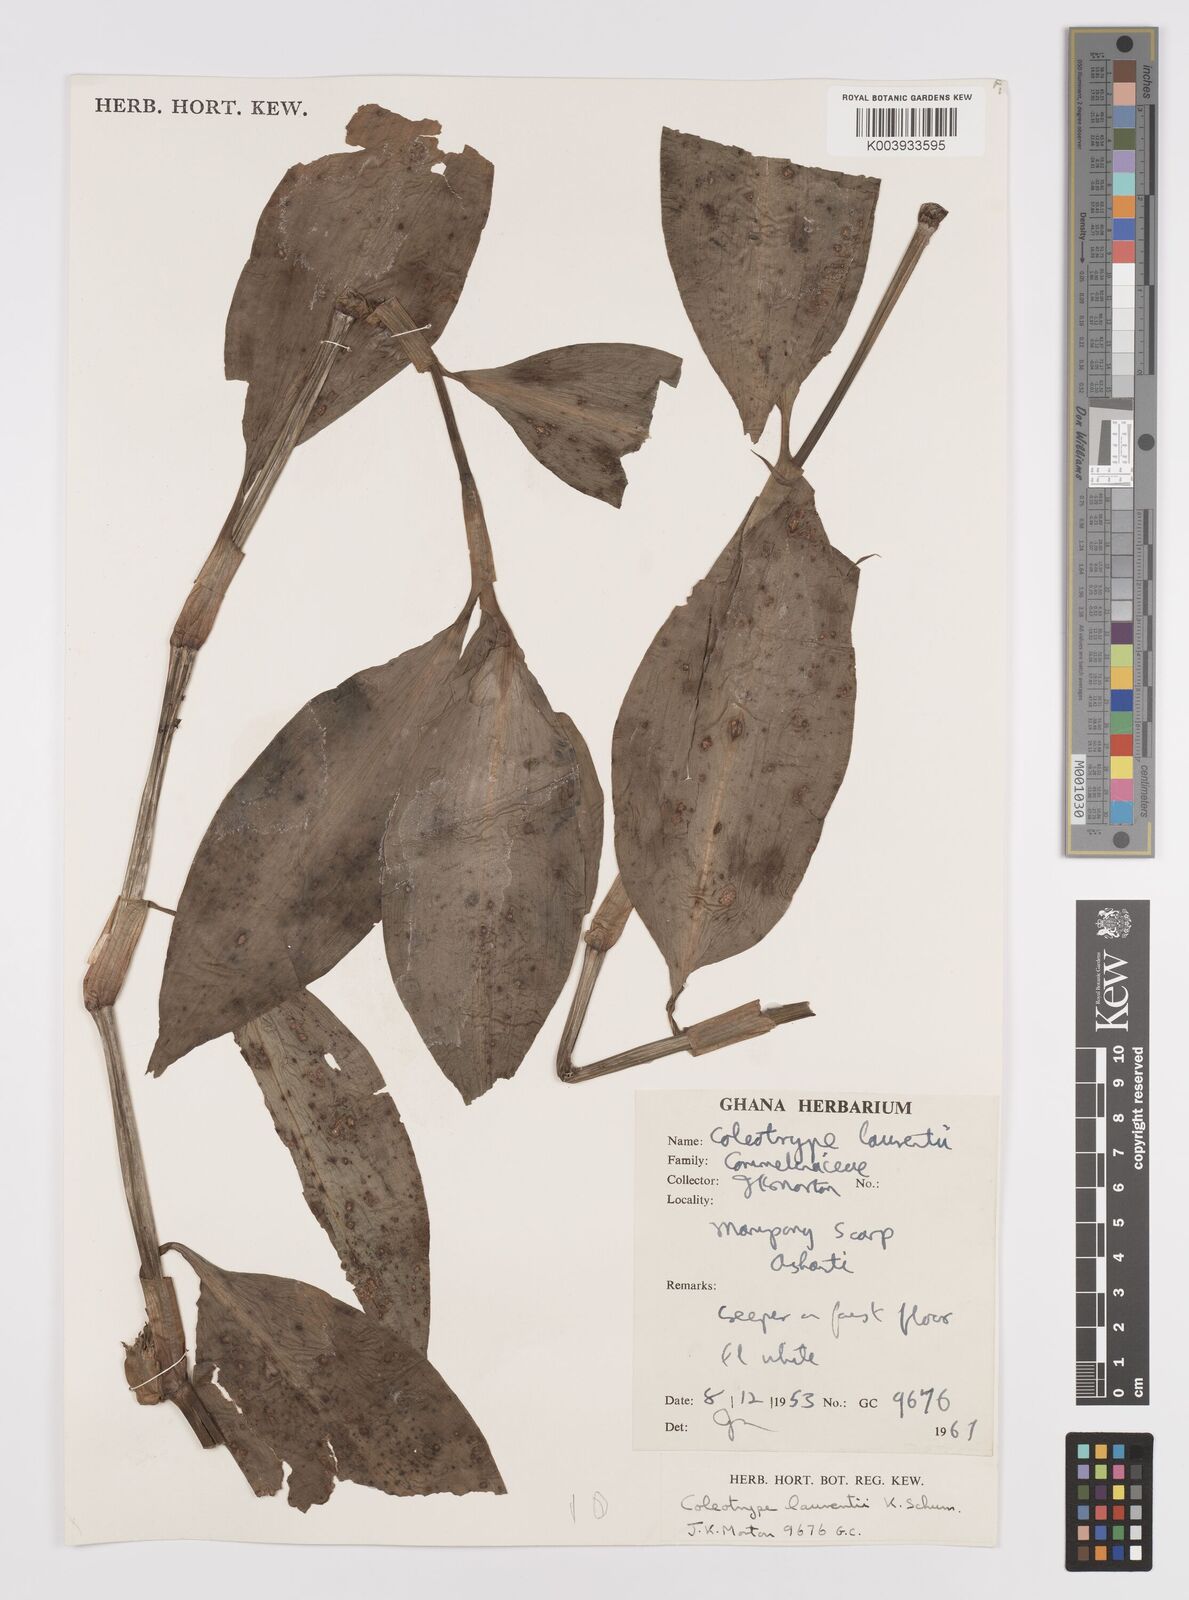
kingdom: Plantae
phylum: Tracheophyta
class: Liliopsida
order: Commelinales
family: Commelinaceae
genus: Coleotrype
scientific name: Coleotrype laurentii
